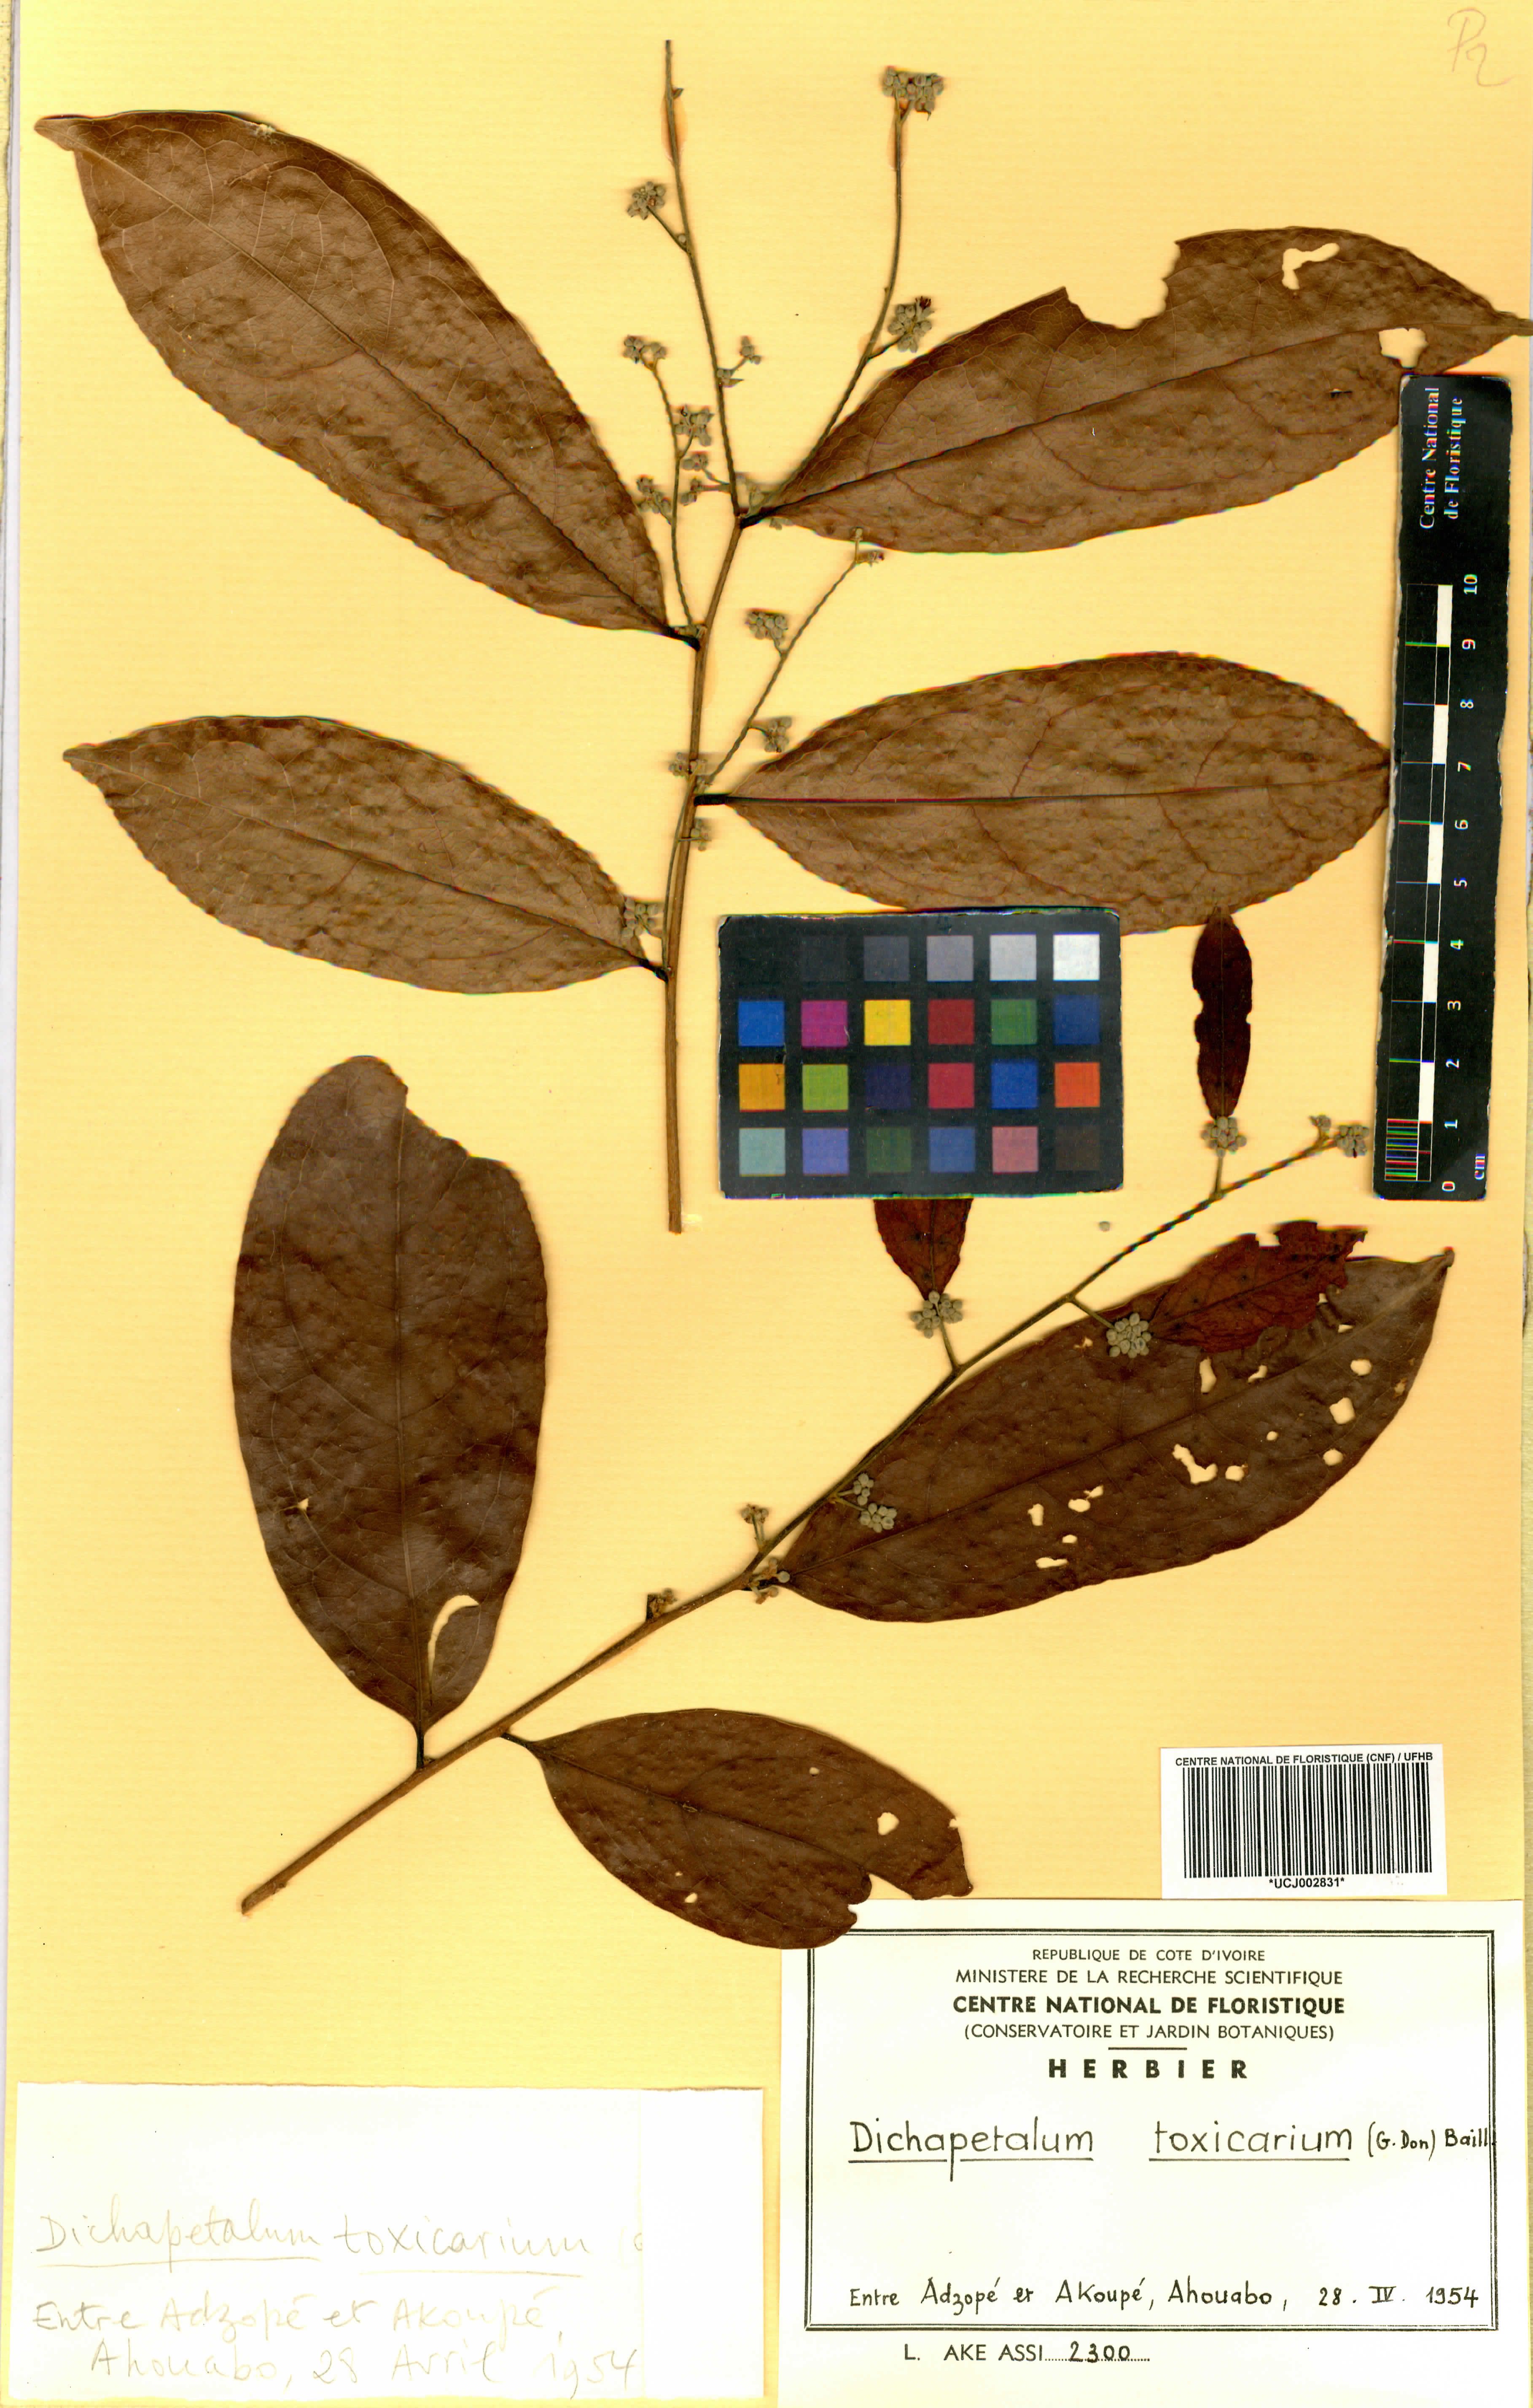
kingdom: Plantae
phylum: Tracheophyta
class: Magnoliopsida
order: Malpighiales
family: Dichapetalaceae
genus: Dichapetalum
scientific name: Dichapetalum toxicarium
